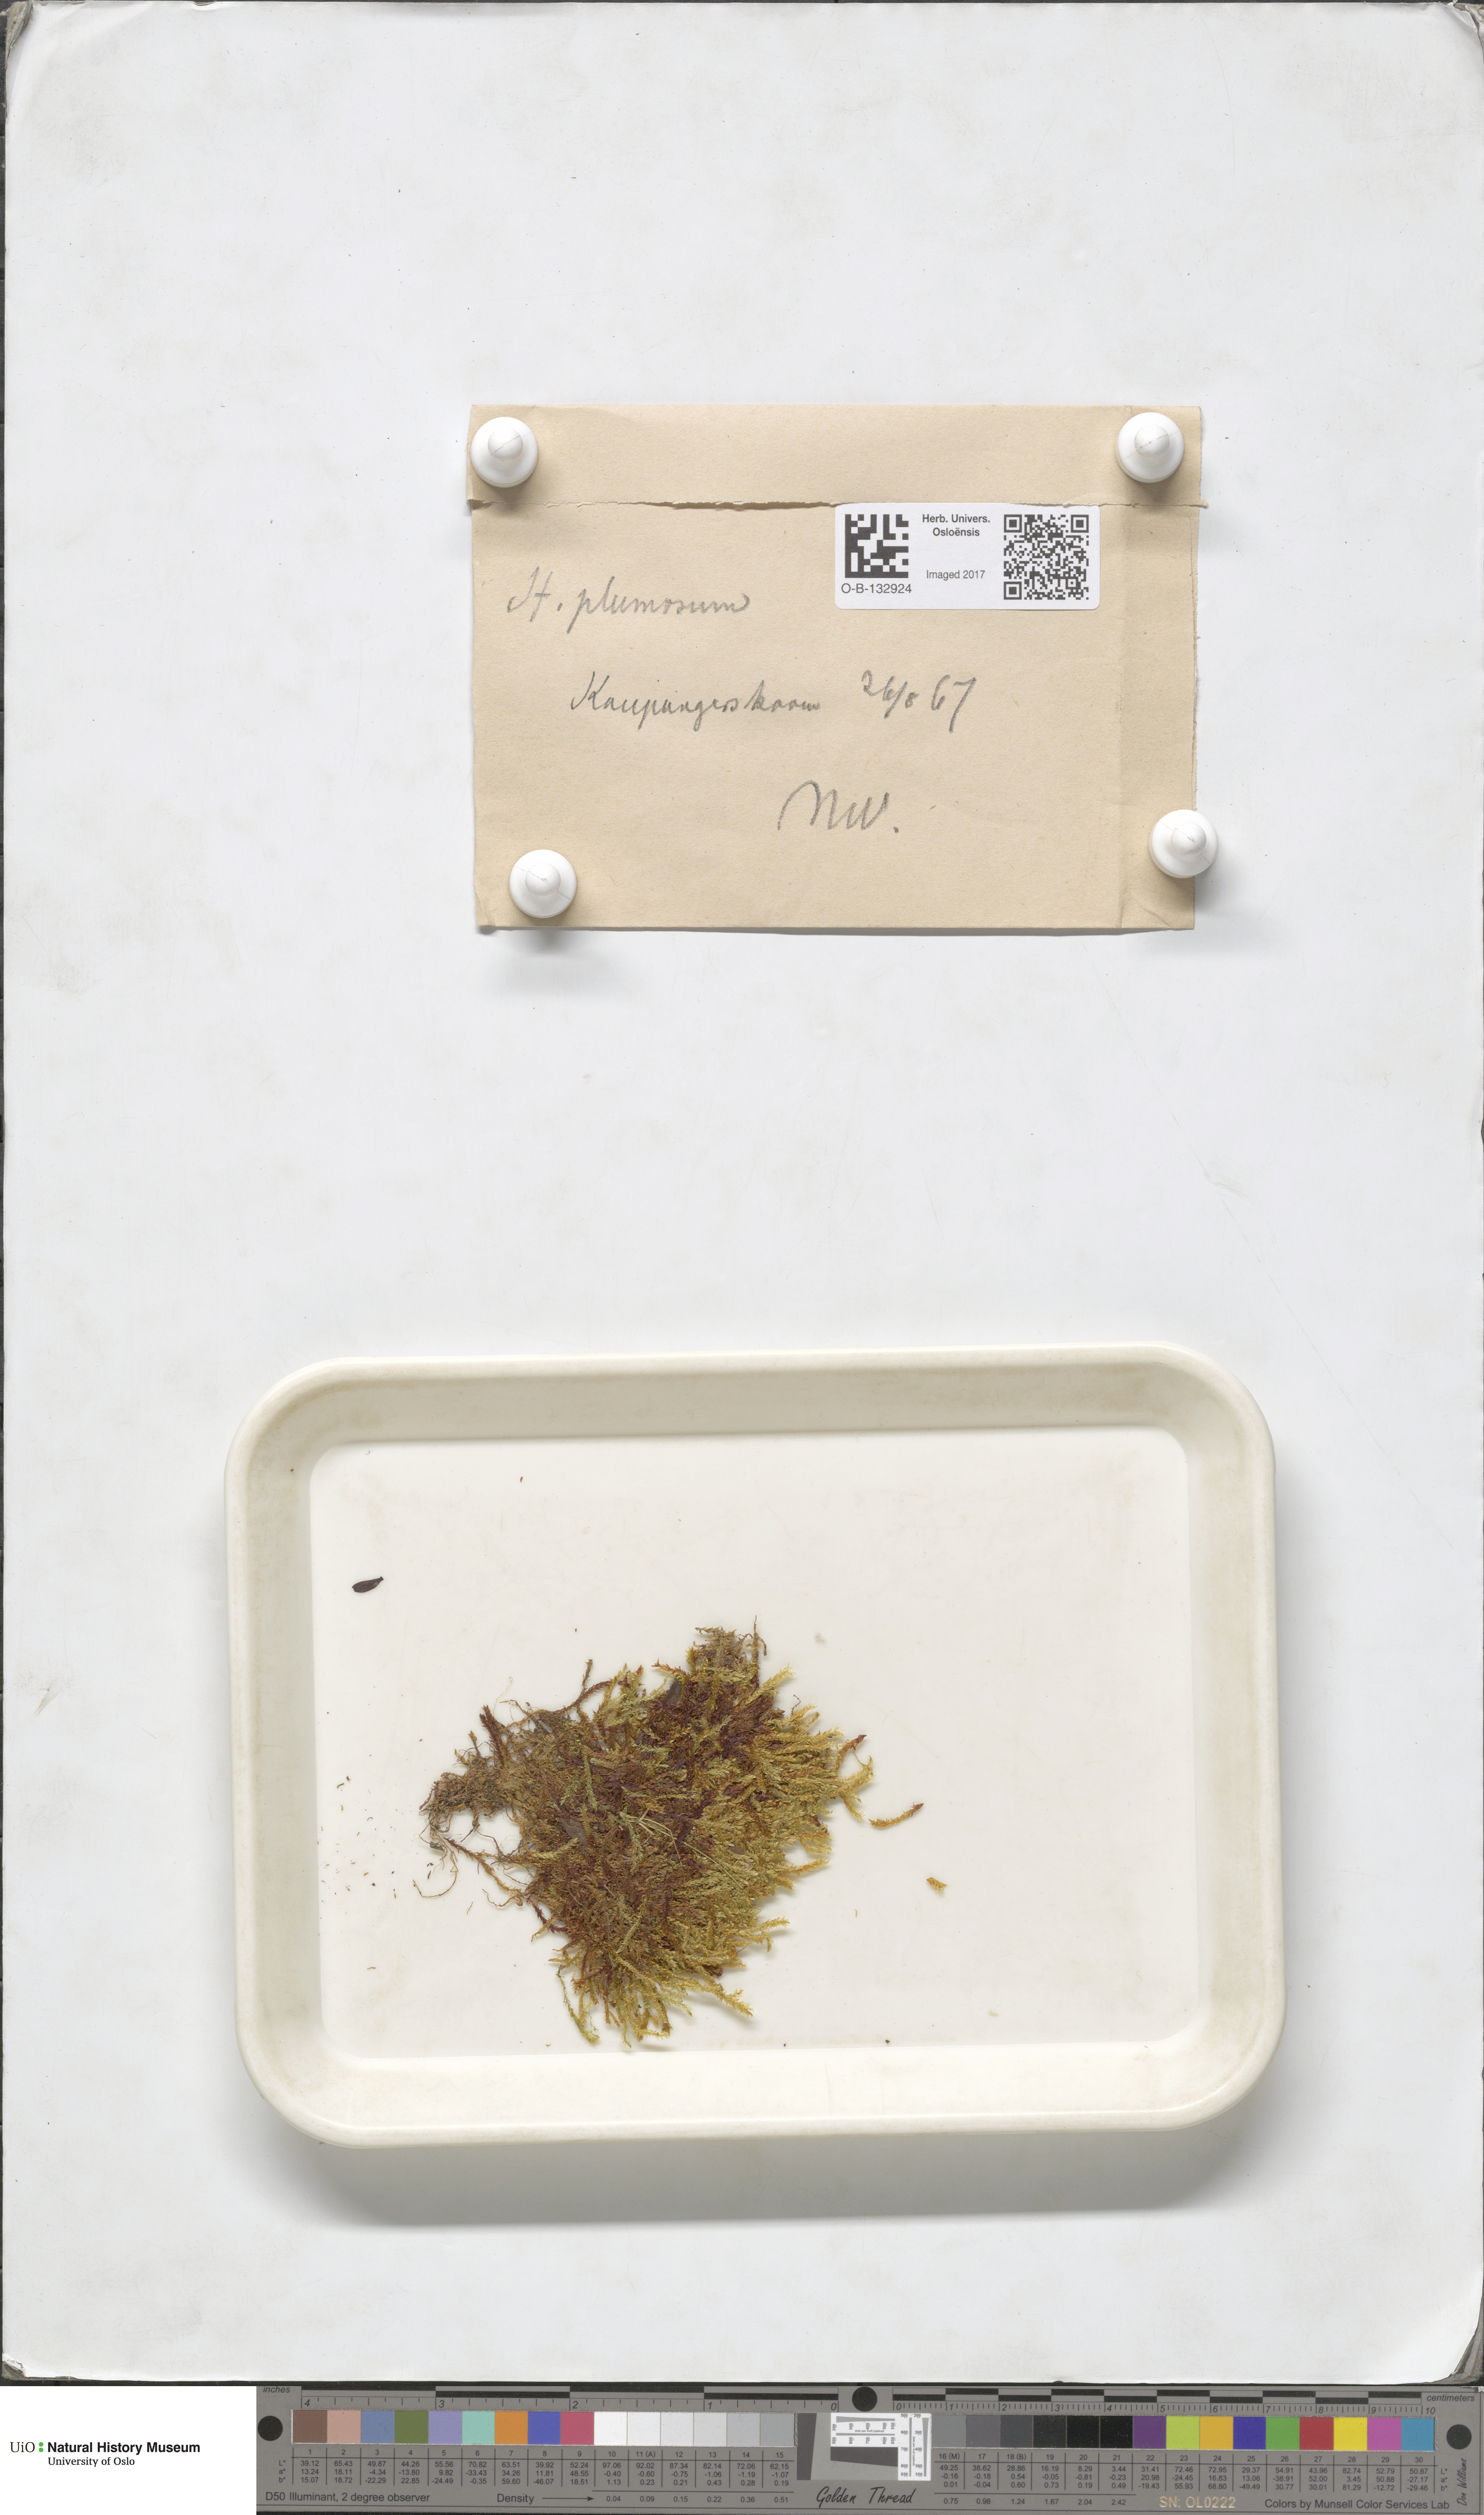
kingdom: Plantae
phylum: Bryophyta
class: Bryopsida
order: Hypnales
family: Brachytheciaceae
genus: Sciuro-hypnum
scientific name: Sciuro-hypnum plumosum
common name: Rusty feather-moss
